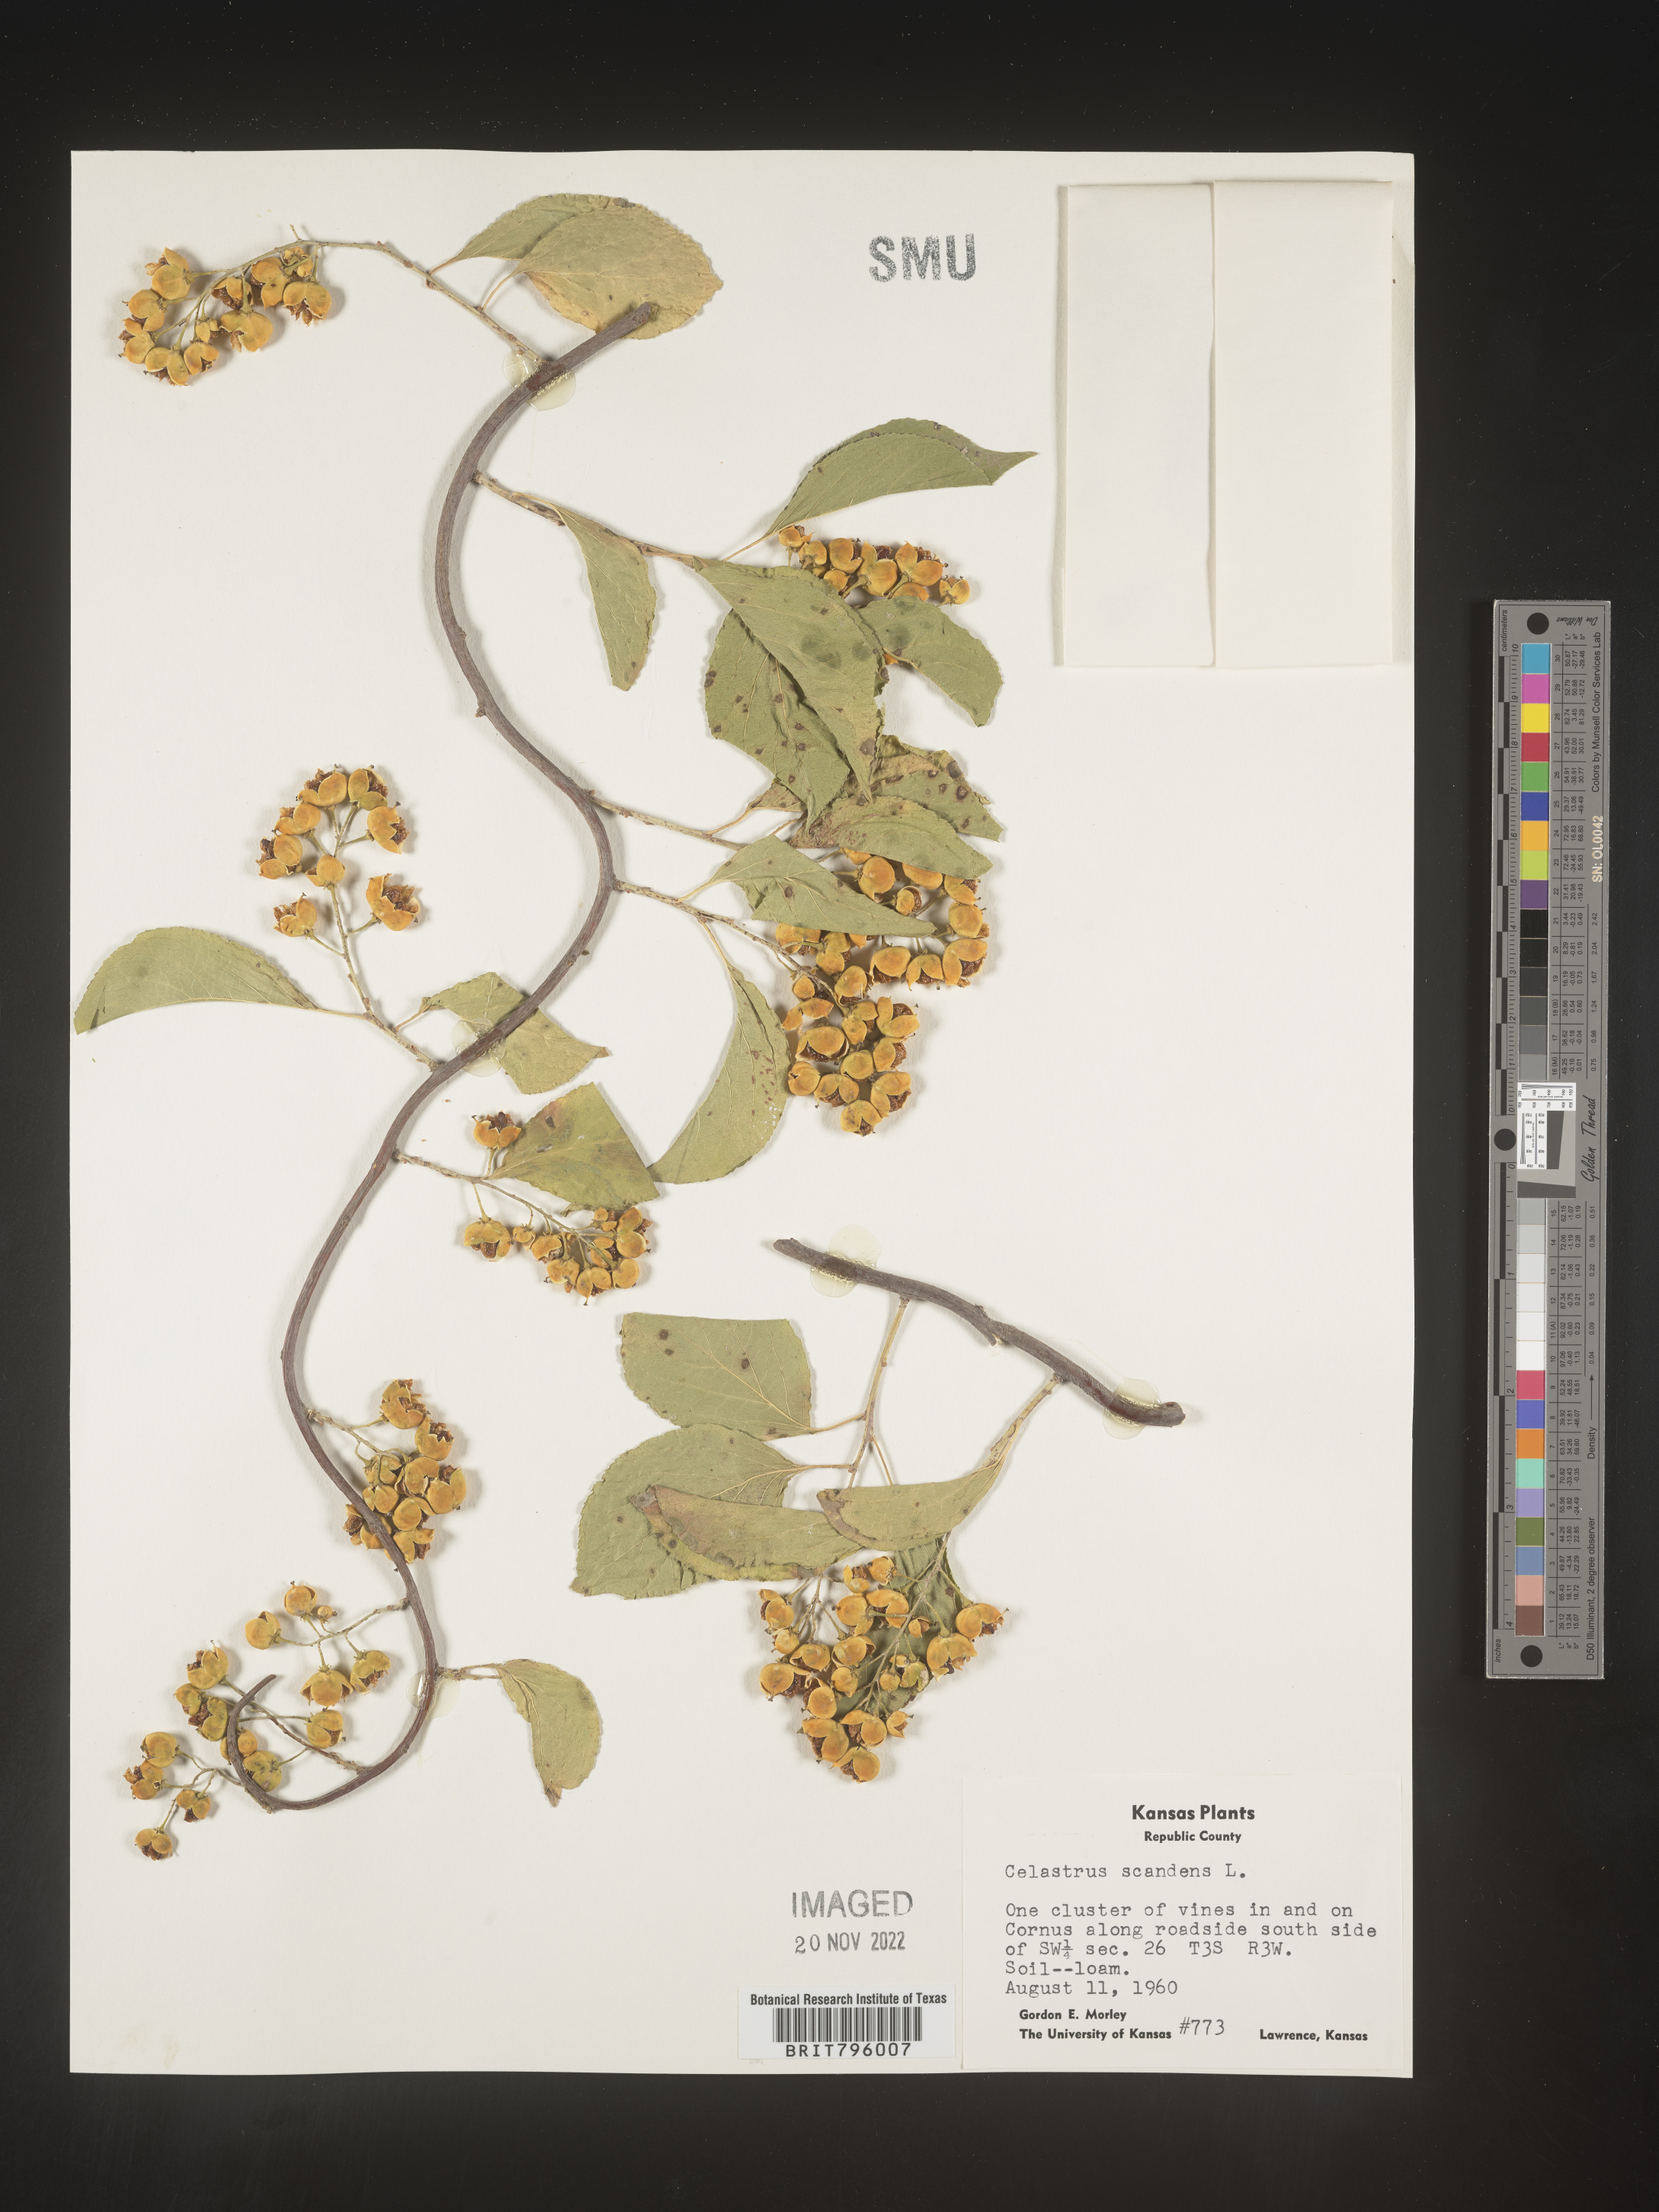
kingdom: Plantae
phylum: Tracheophyta
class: Magnoliopsida
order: Celastrales
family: Celastraceae
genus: Celastrus
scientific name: Celastrus scandens
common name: American bittersweet
